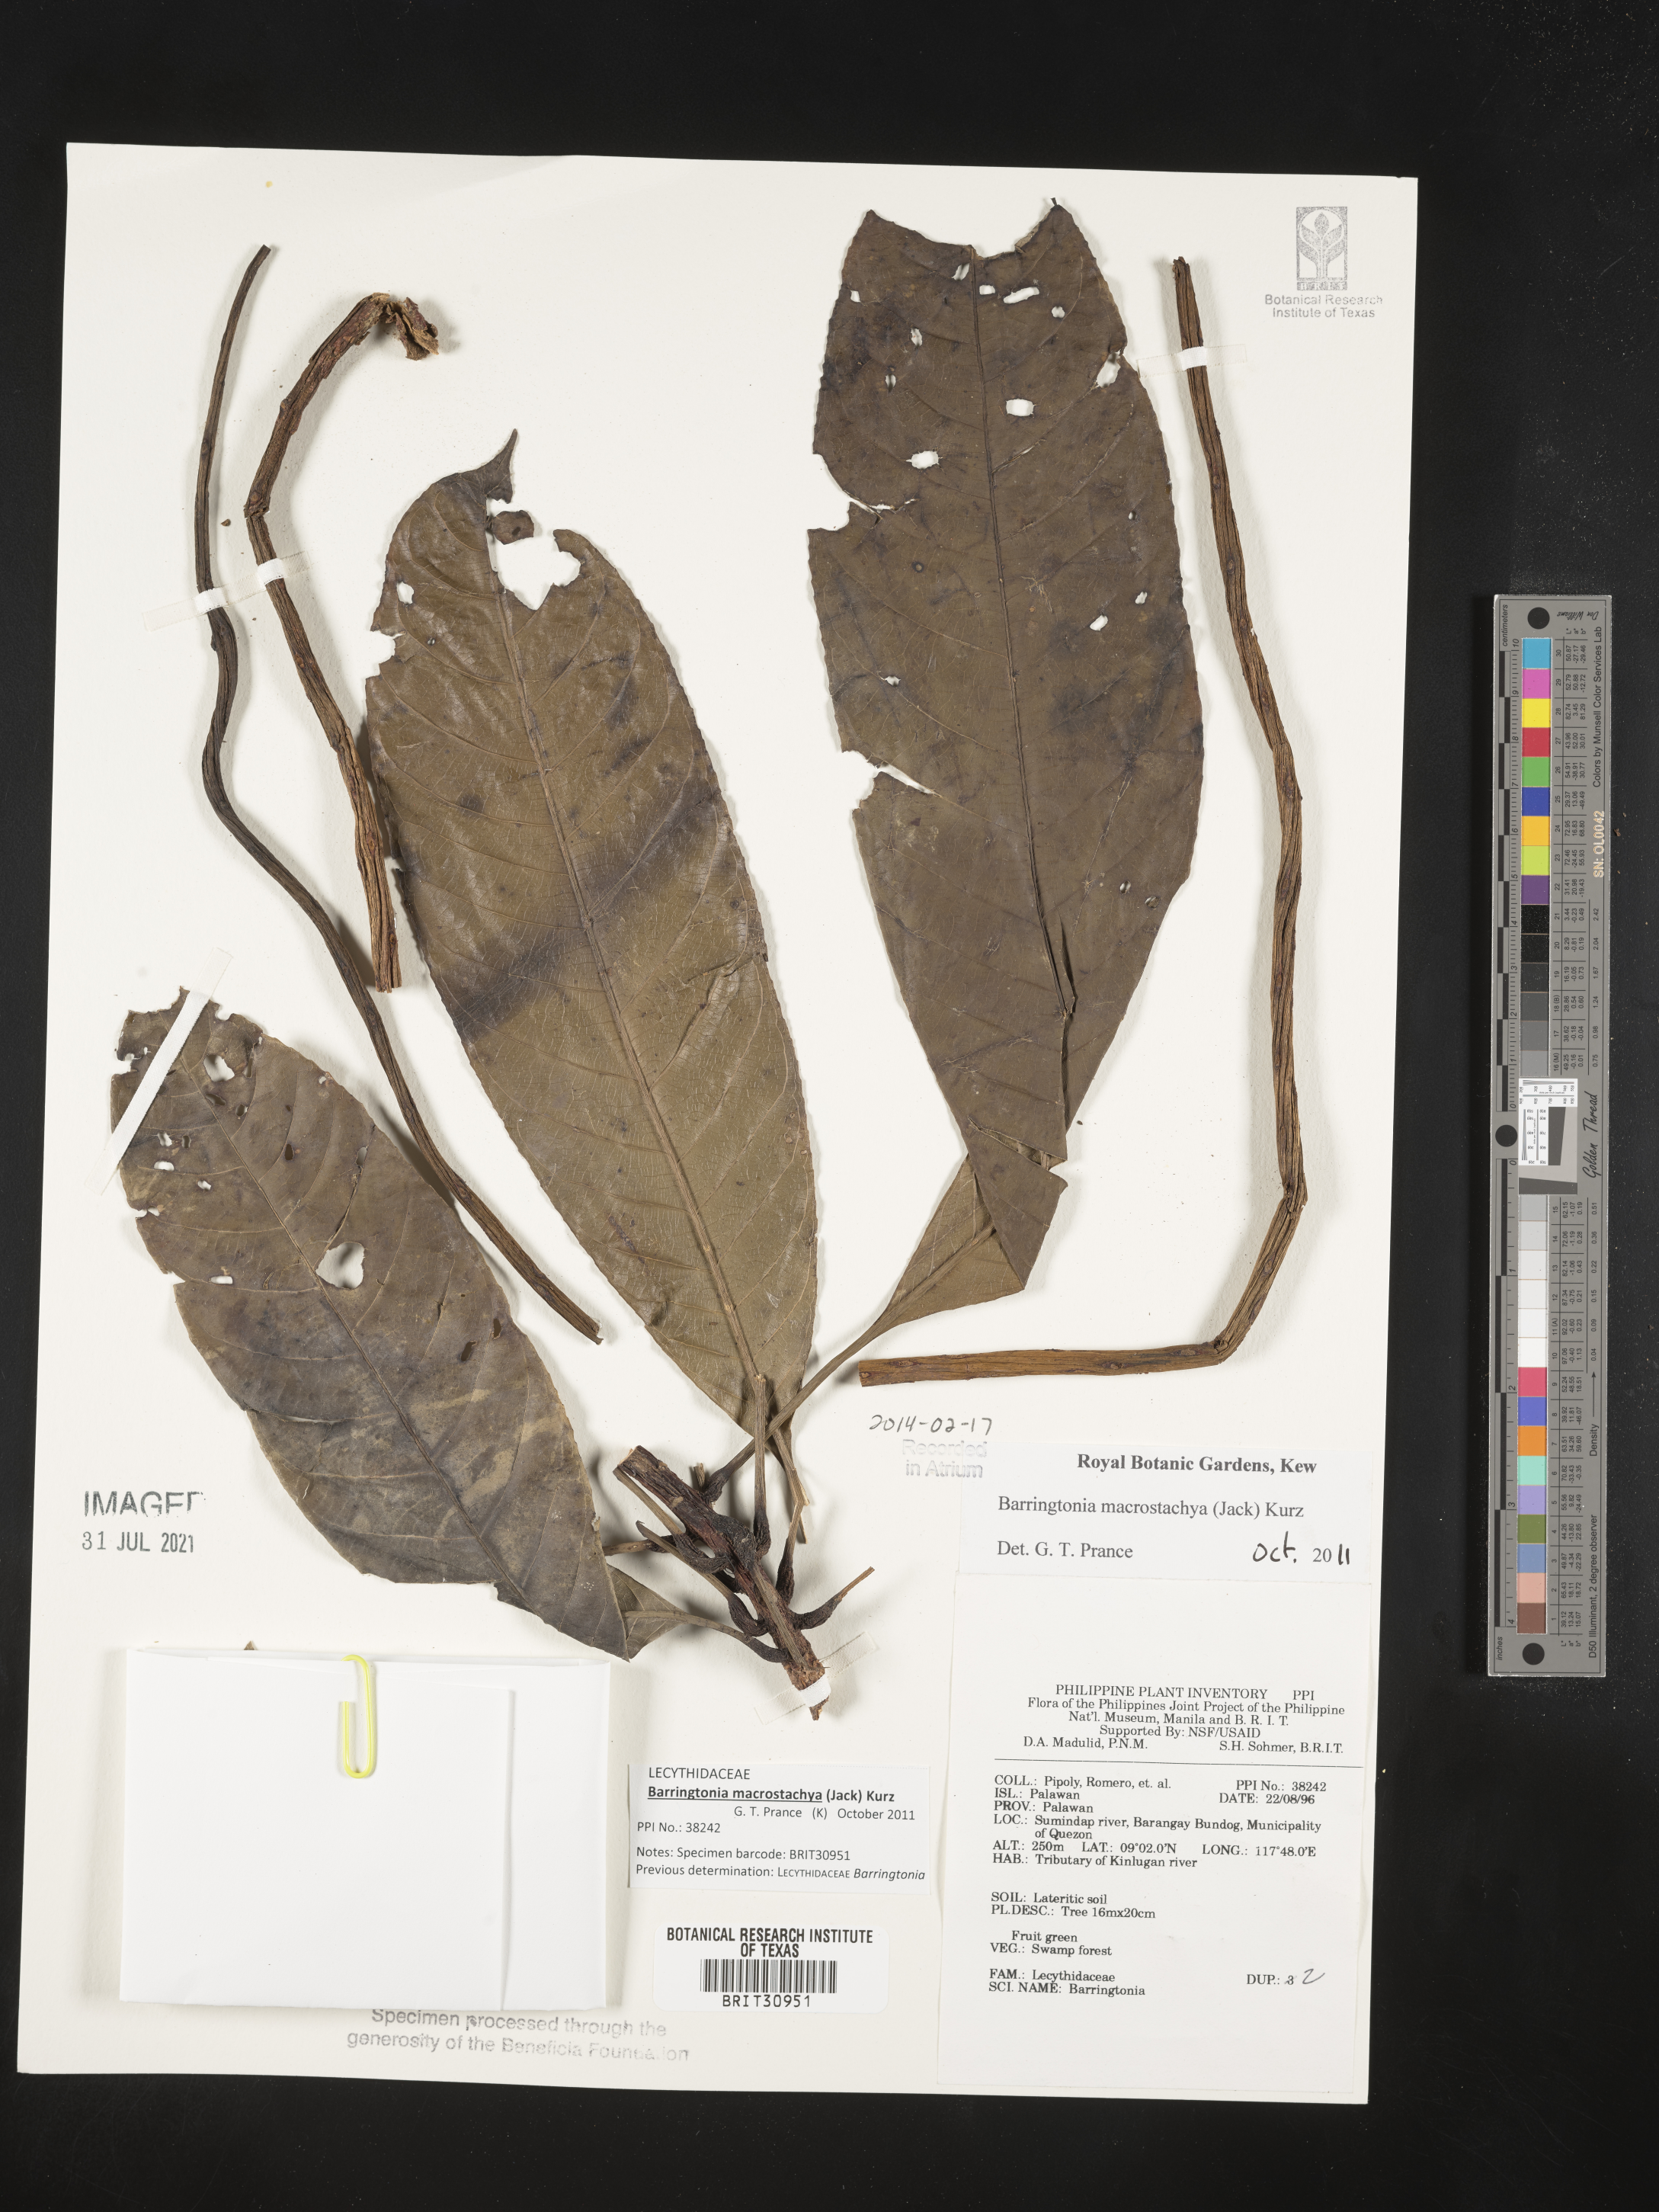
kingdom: Plantae
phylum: Tracheophyta
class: Magnoliopsida
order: Ericales
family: Lecythidaceae
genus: Barringtonia
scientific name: Barringtonia
